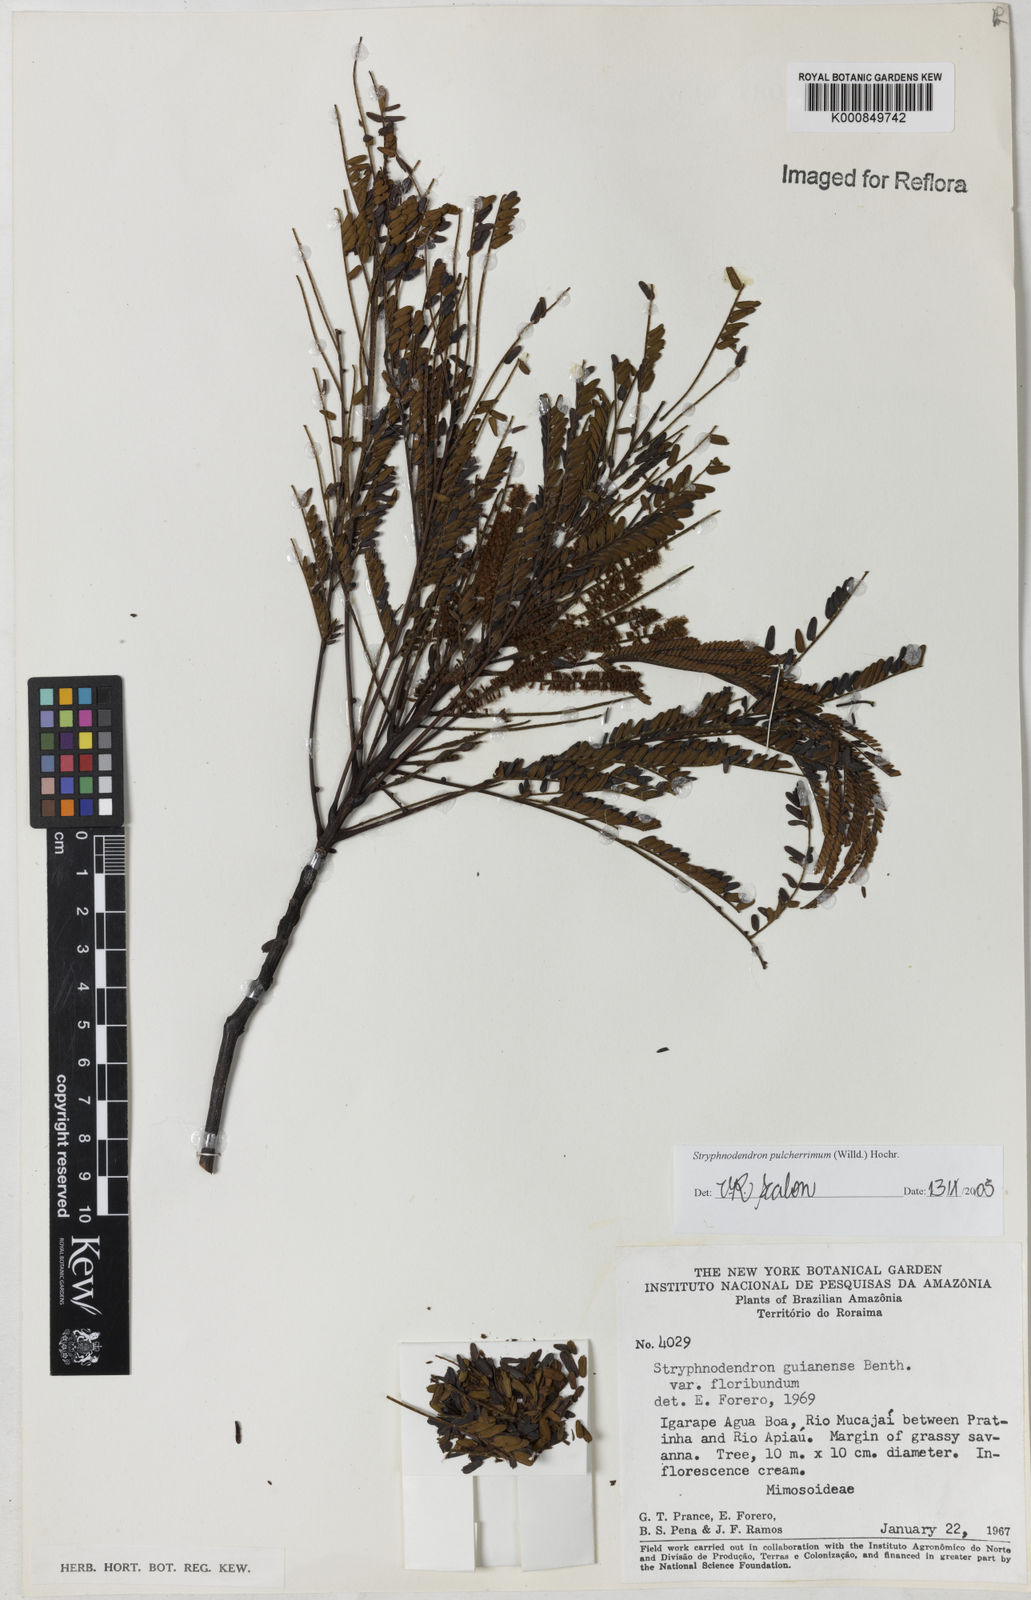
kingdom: Plantae
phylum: Tracheophyta
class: Magnoliopsida
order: Fabales
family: Fabaceae
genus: Stryphnodendron
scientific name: Stryphnodendron pulcherrimum
